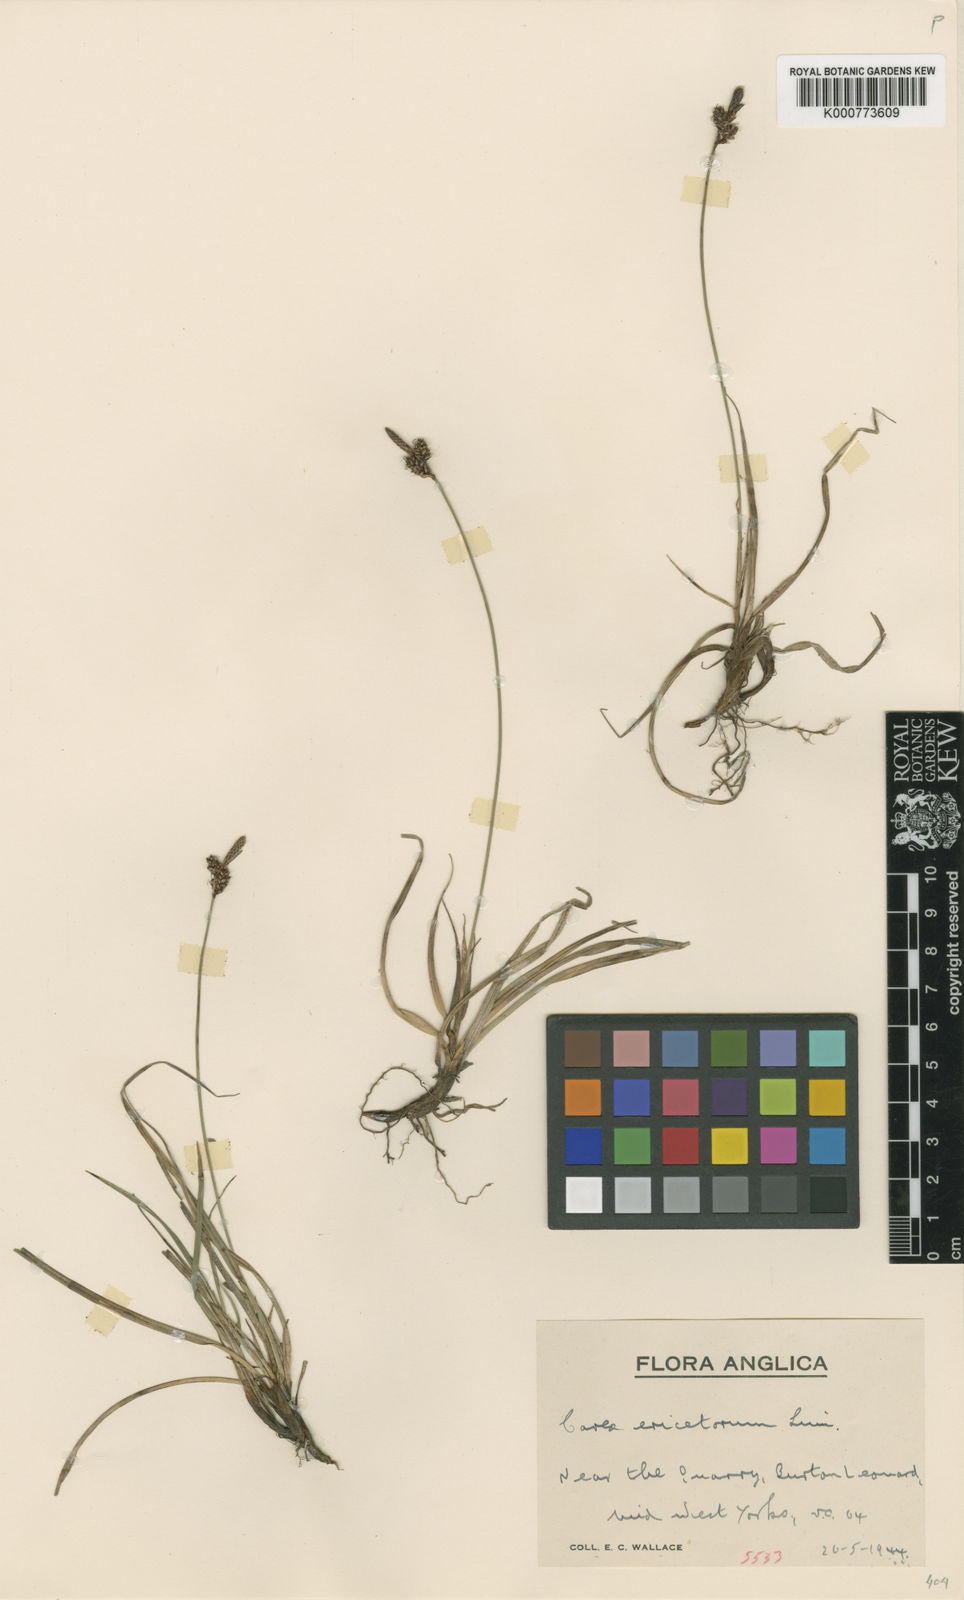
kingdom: Plantae
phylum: Tracheophyta
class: Liliopsida
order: Poales
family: Cyperaceae
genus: Carex
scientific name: Carex ericetorum
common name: Rare spring-sedge
